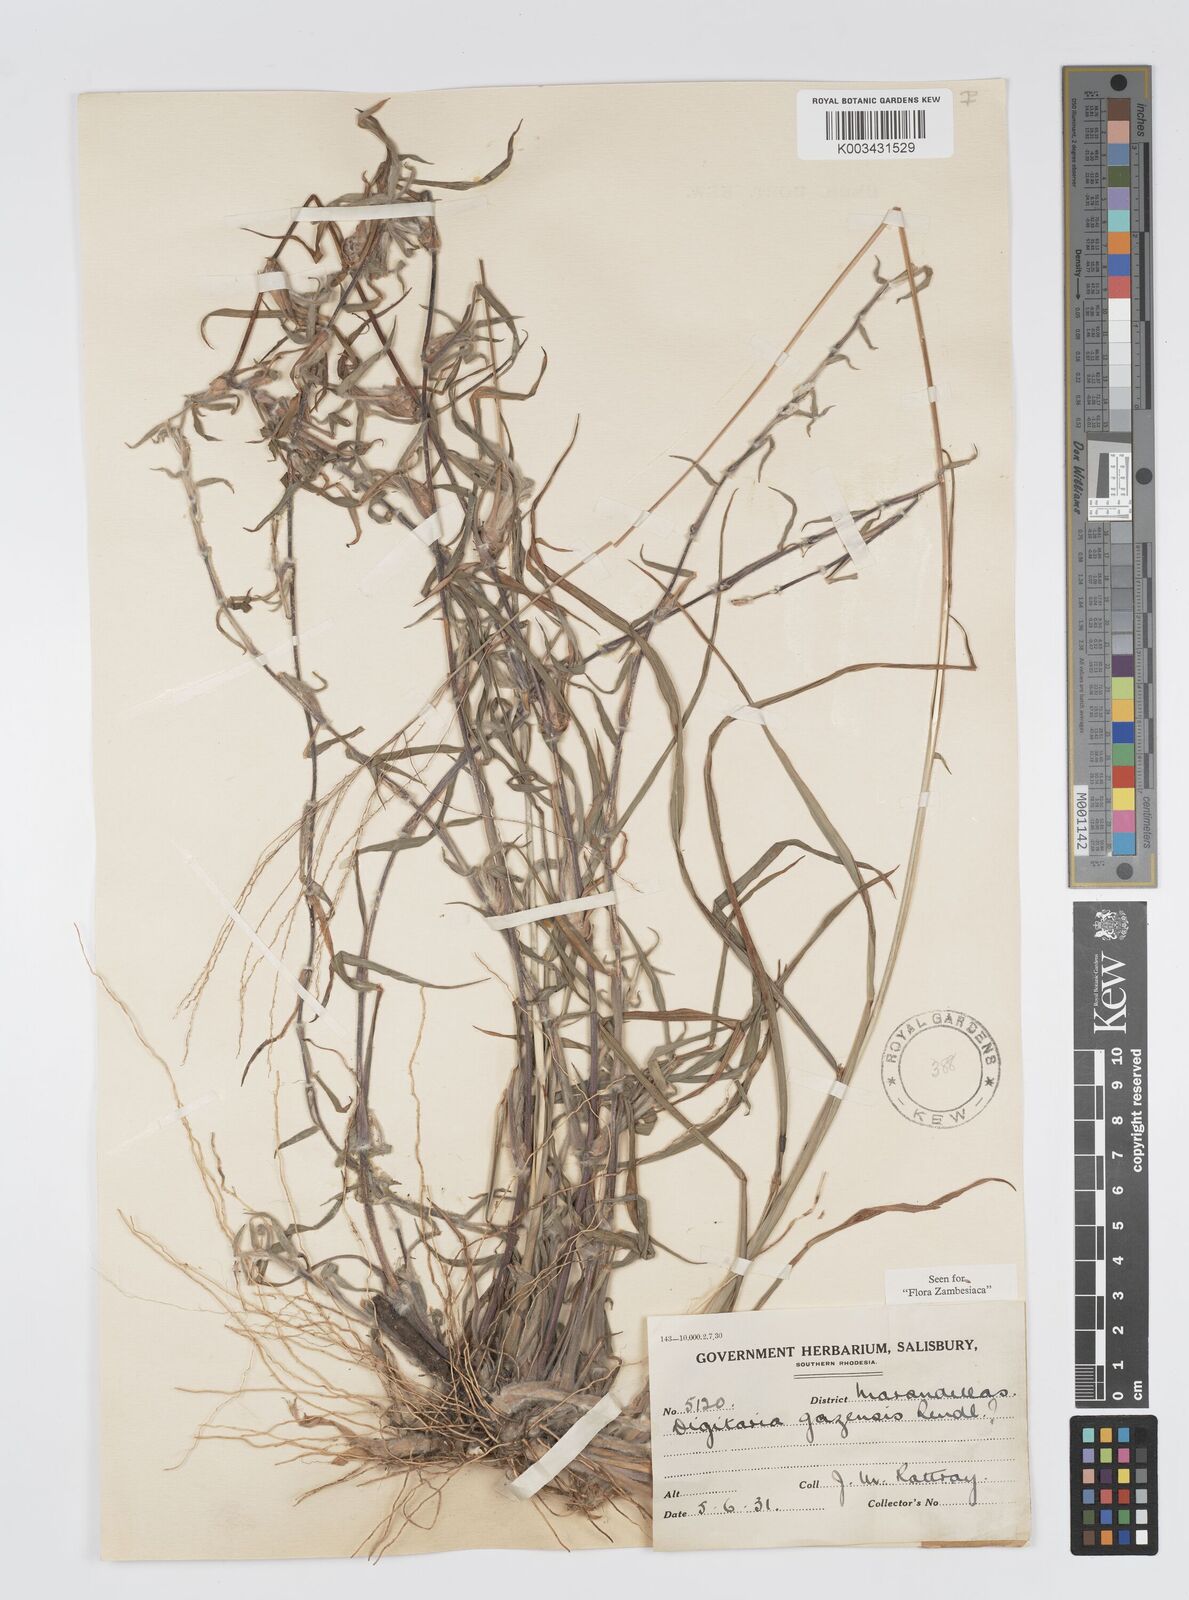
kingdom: Plantae
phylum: Tracheophyta
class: Liliopsida
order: Poales
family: Poaceae
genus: Digitaria
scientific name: Digitaria gazensis
